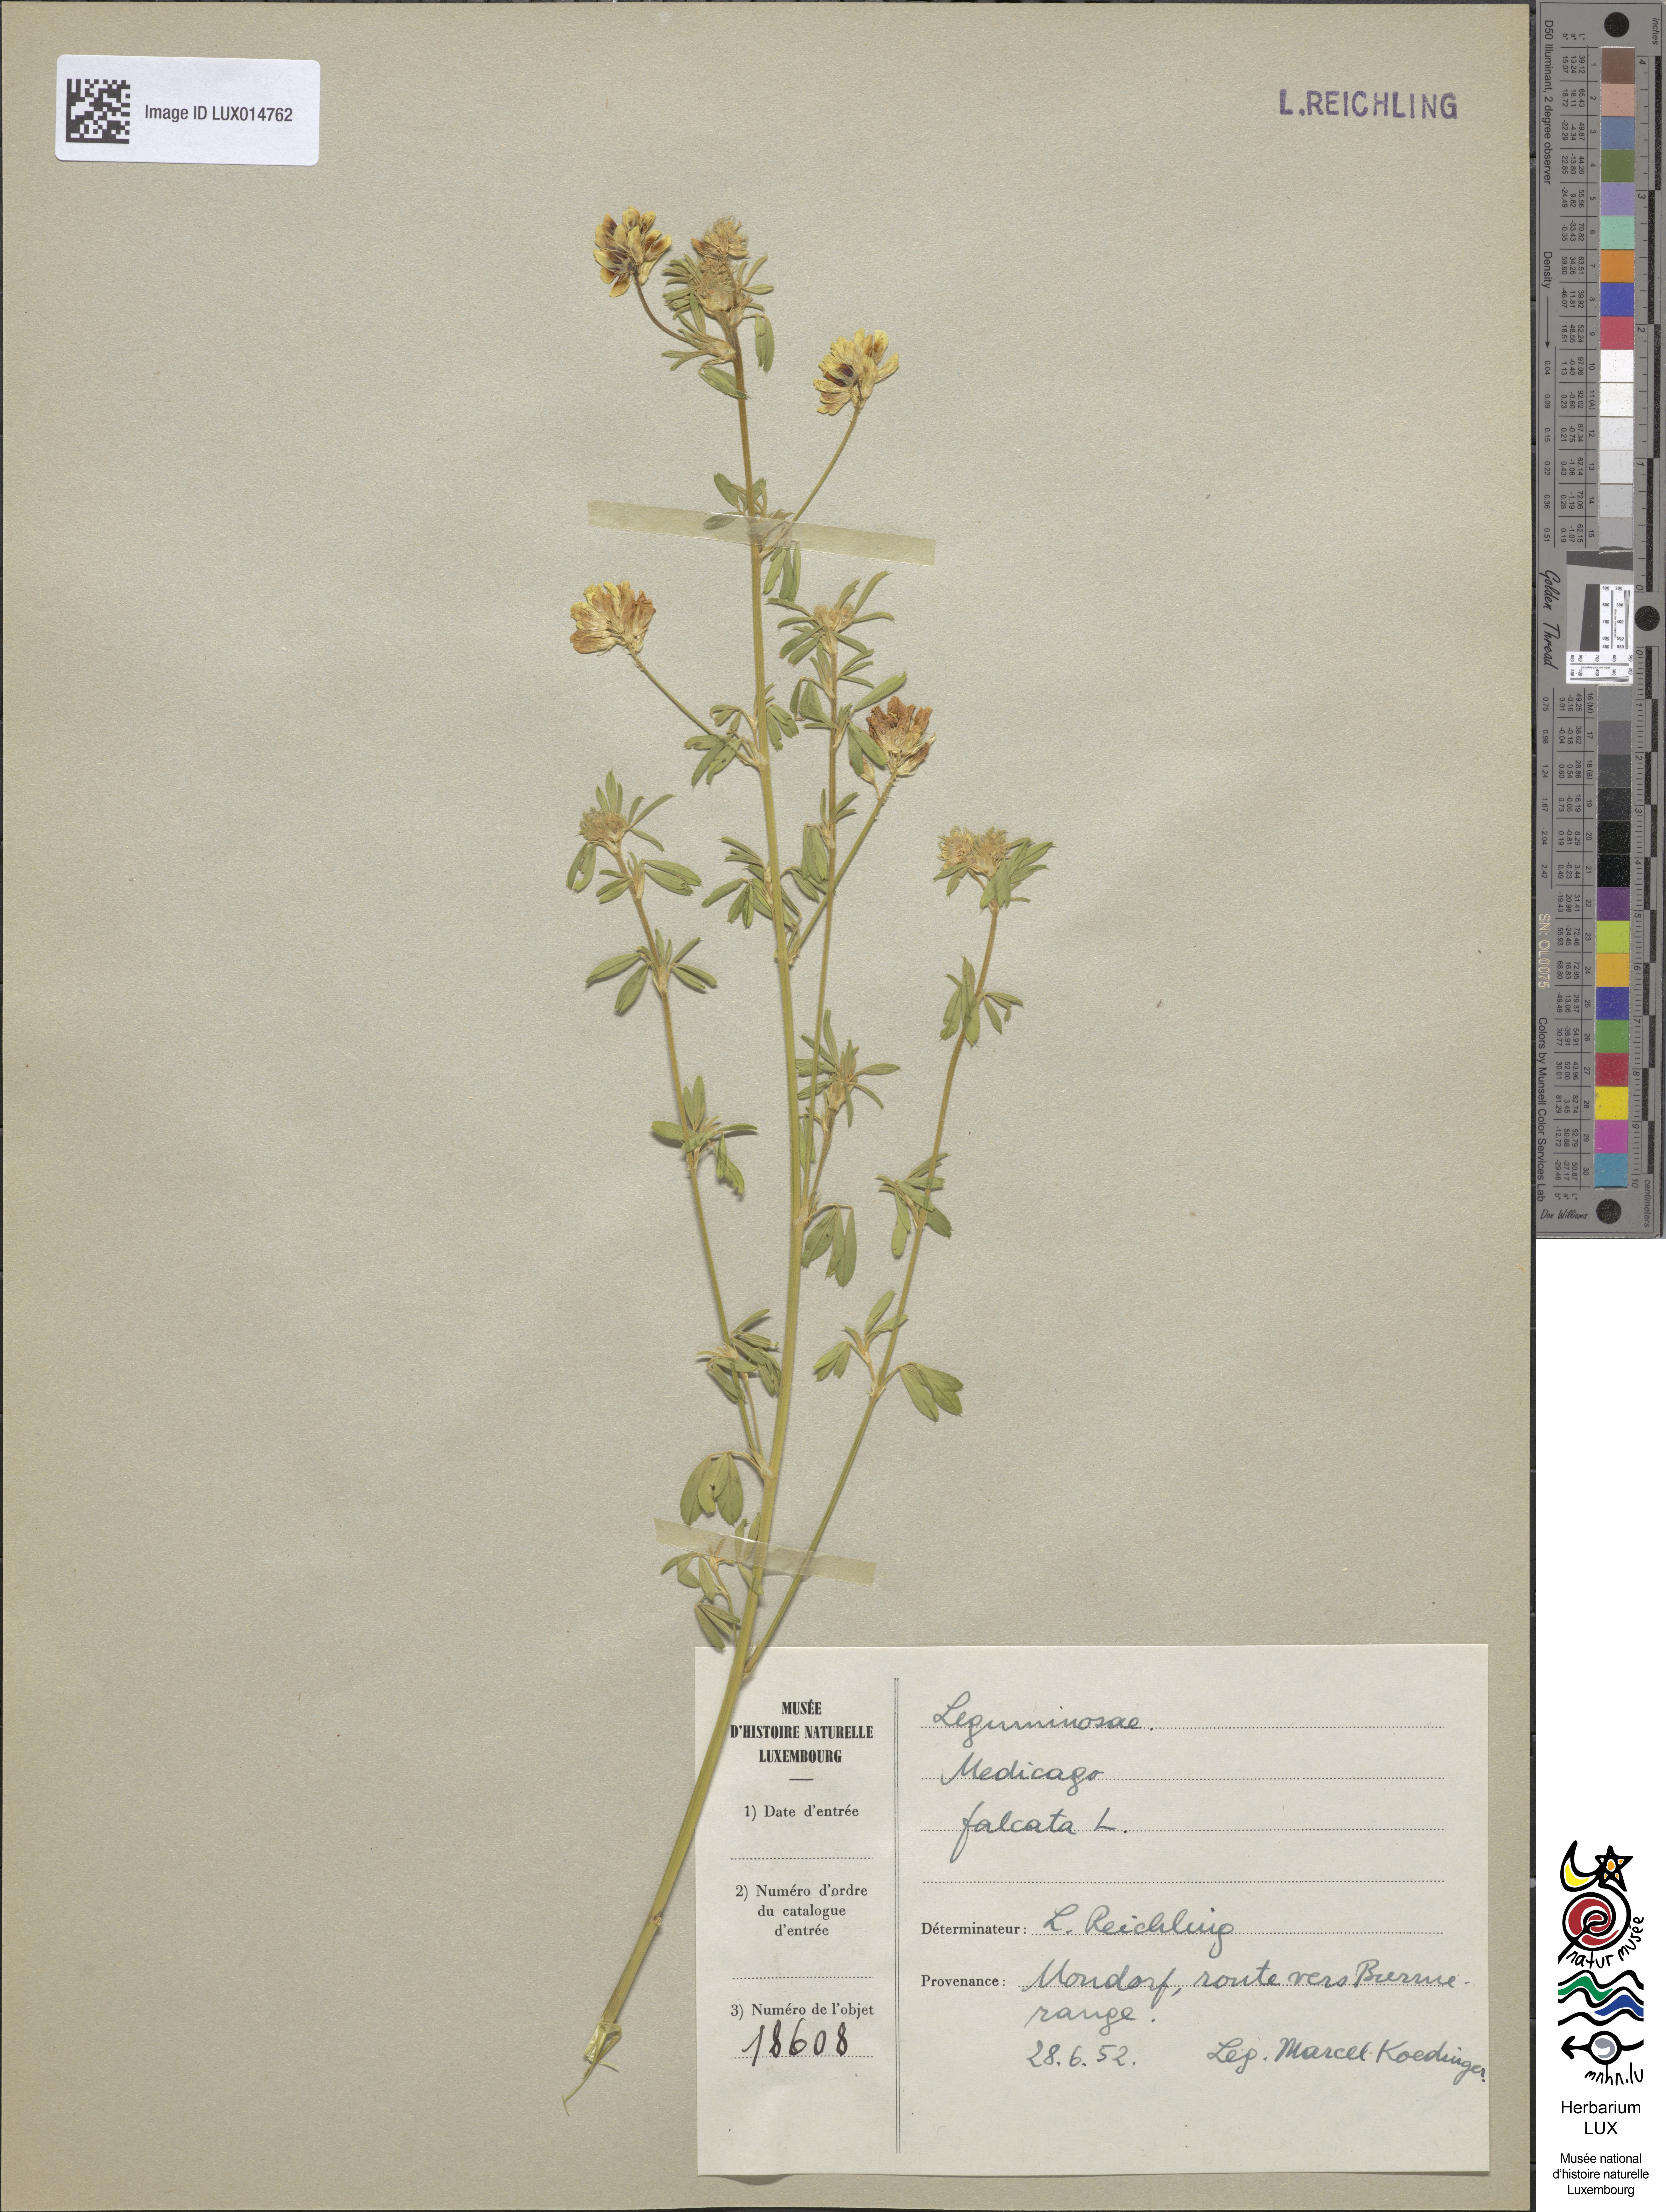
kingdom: Plantae
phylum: Tracheophyta
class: Magnoliopsida
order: Fabales
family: Fabaceae
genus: Medicago
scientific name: Medicago falcata
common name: Sickle medick
